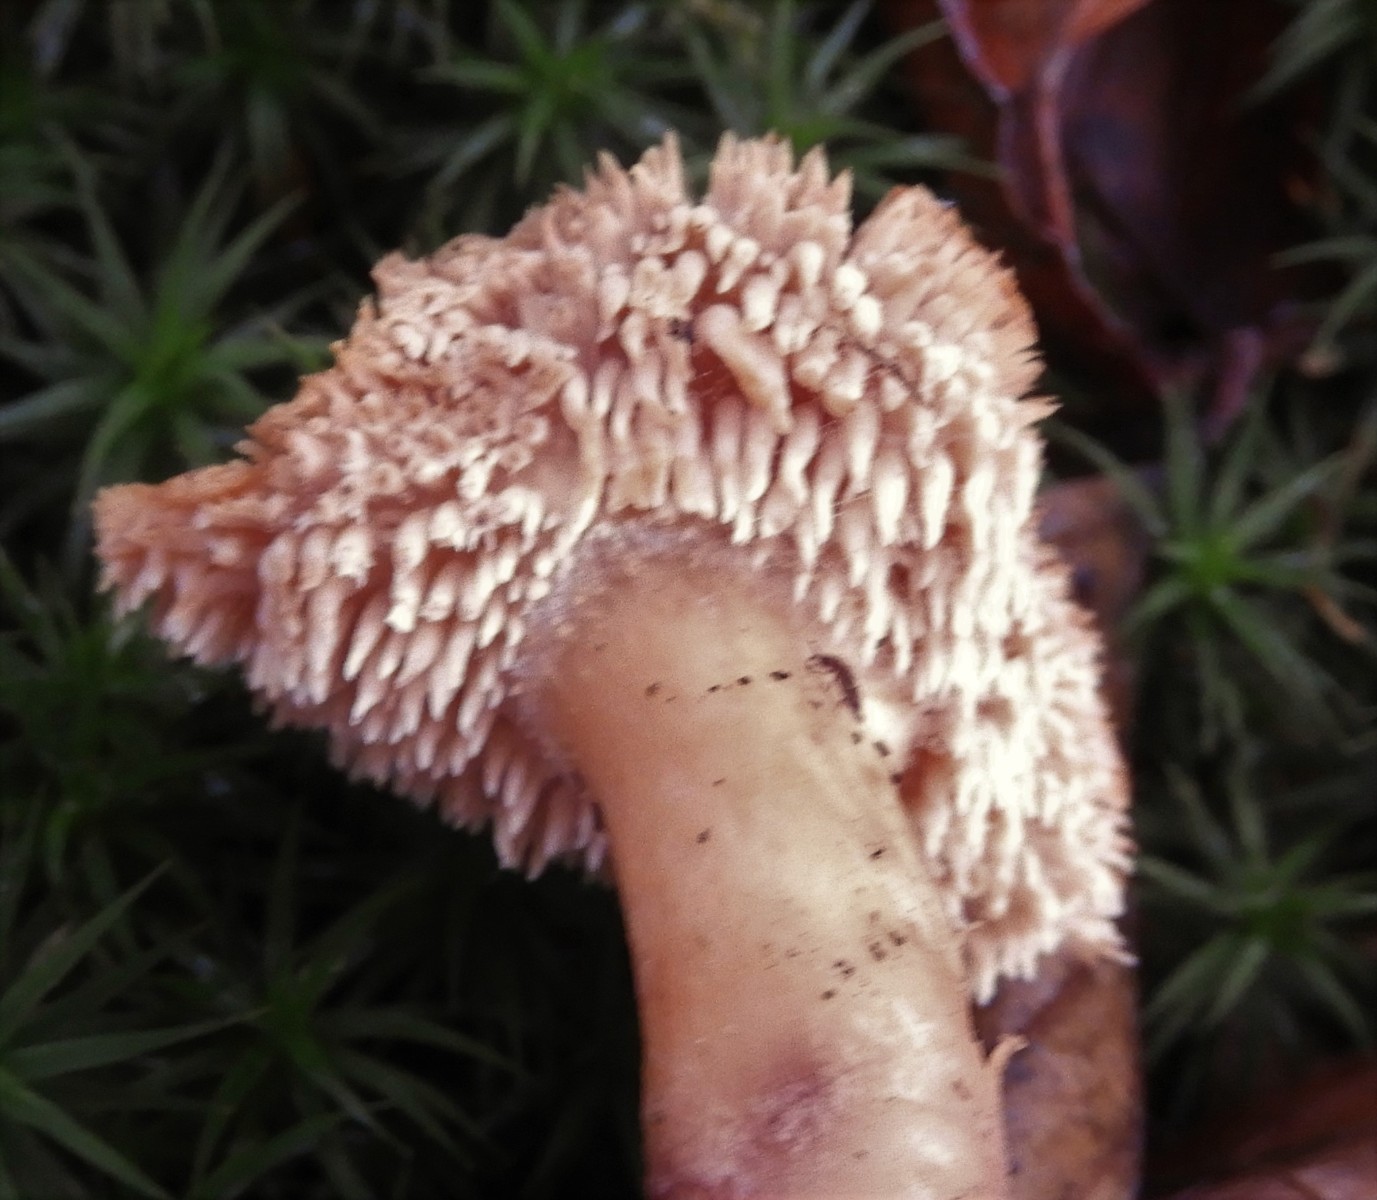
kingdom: Fungi
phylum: Basidiomycota
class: Agaricomycetes
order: Cantharellales
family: Hydnaceae
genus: Hydnum
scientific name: Hydnum
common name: pigsvamp
